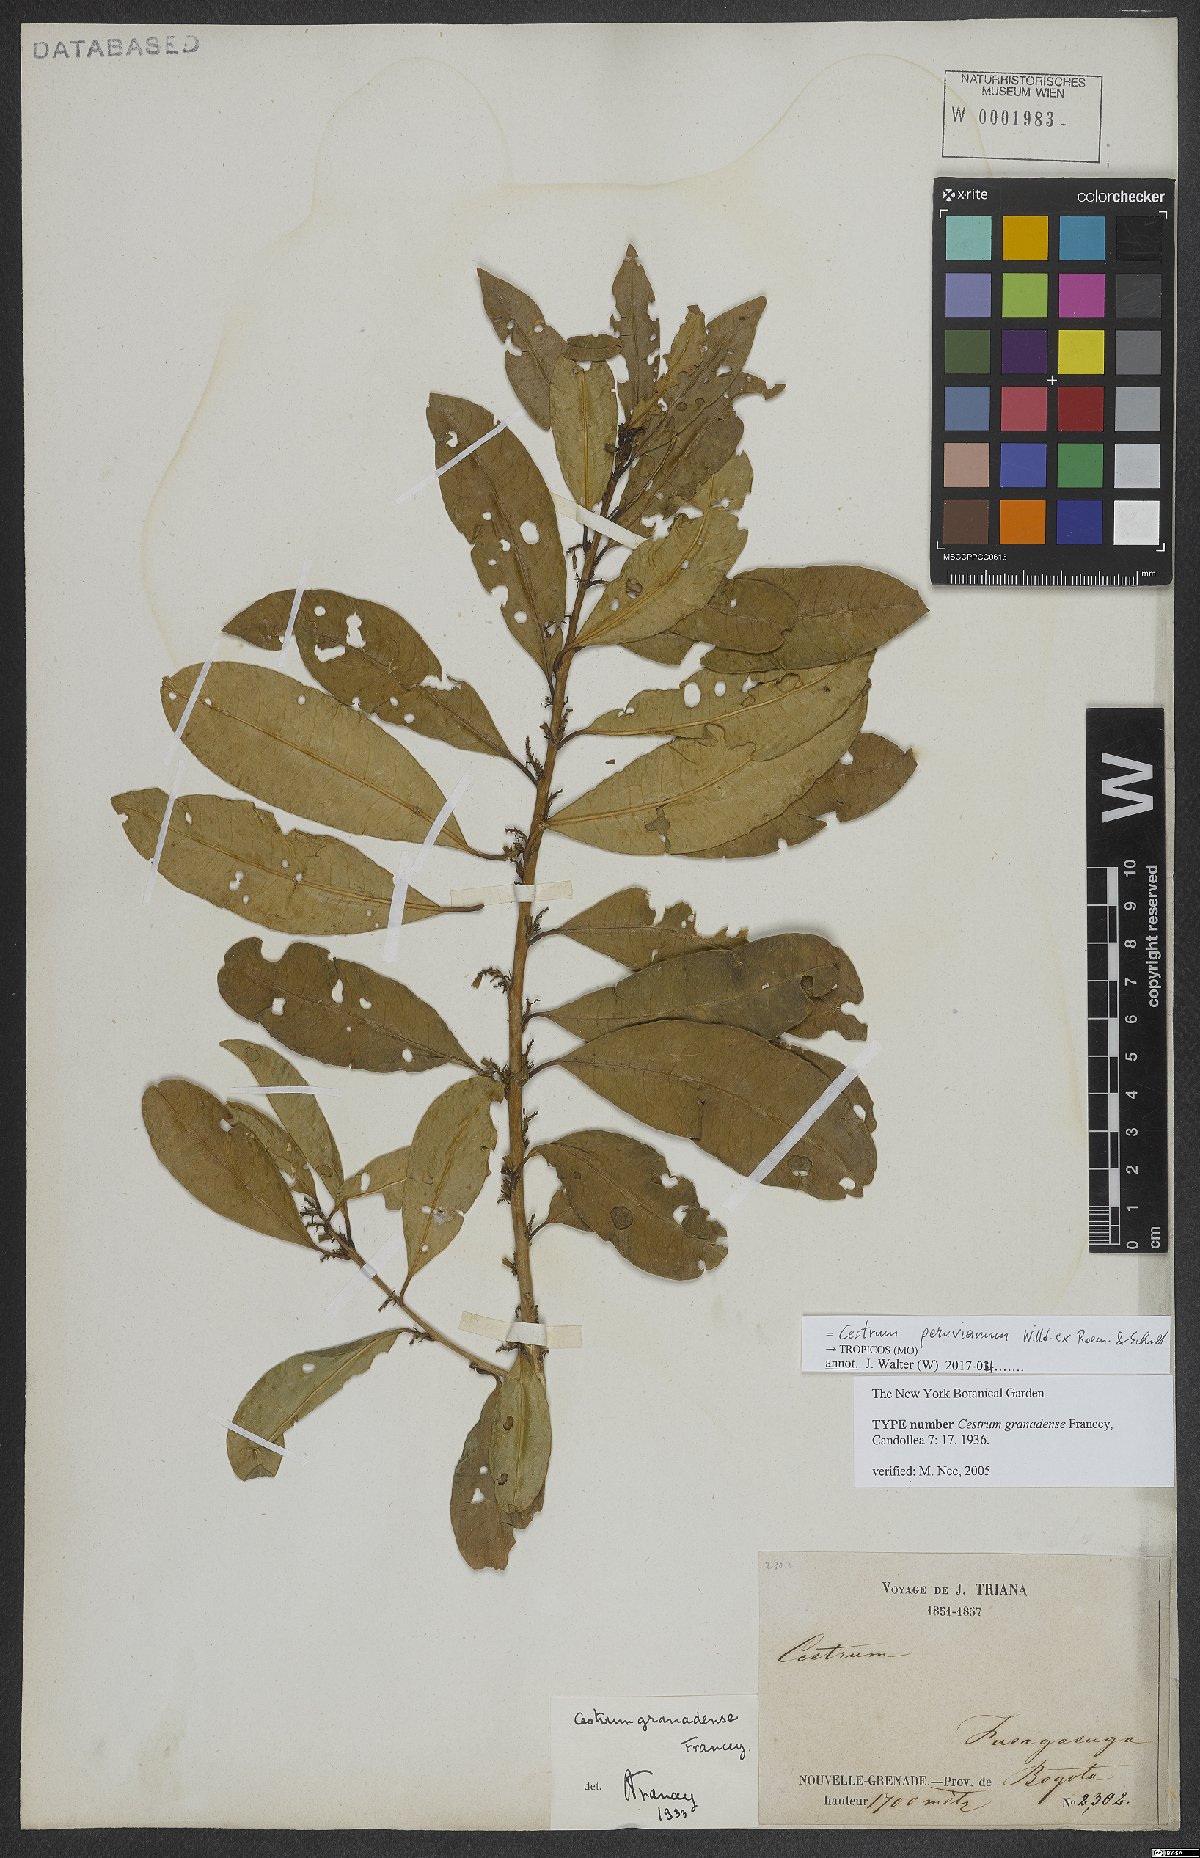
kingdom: Plantae
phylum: Tracheophyta
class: Magnoliopsida
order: Solanales
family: Solanaceae
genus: Cestrum
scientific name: Cestrum peruvianum
